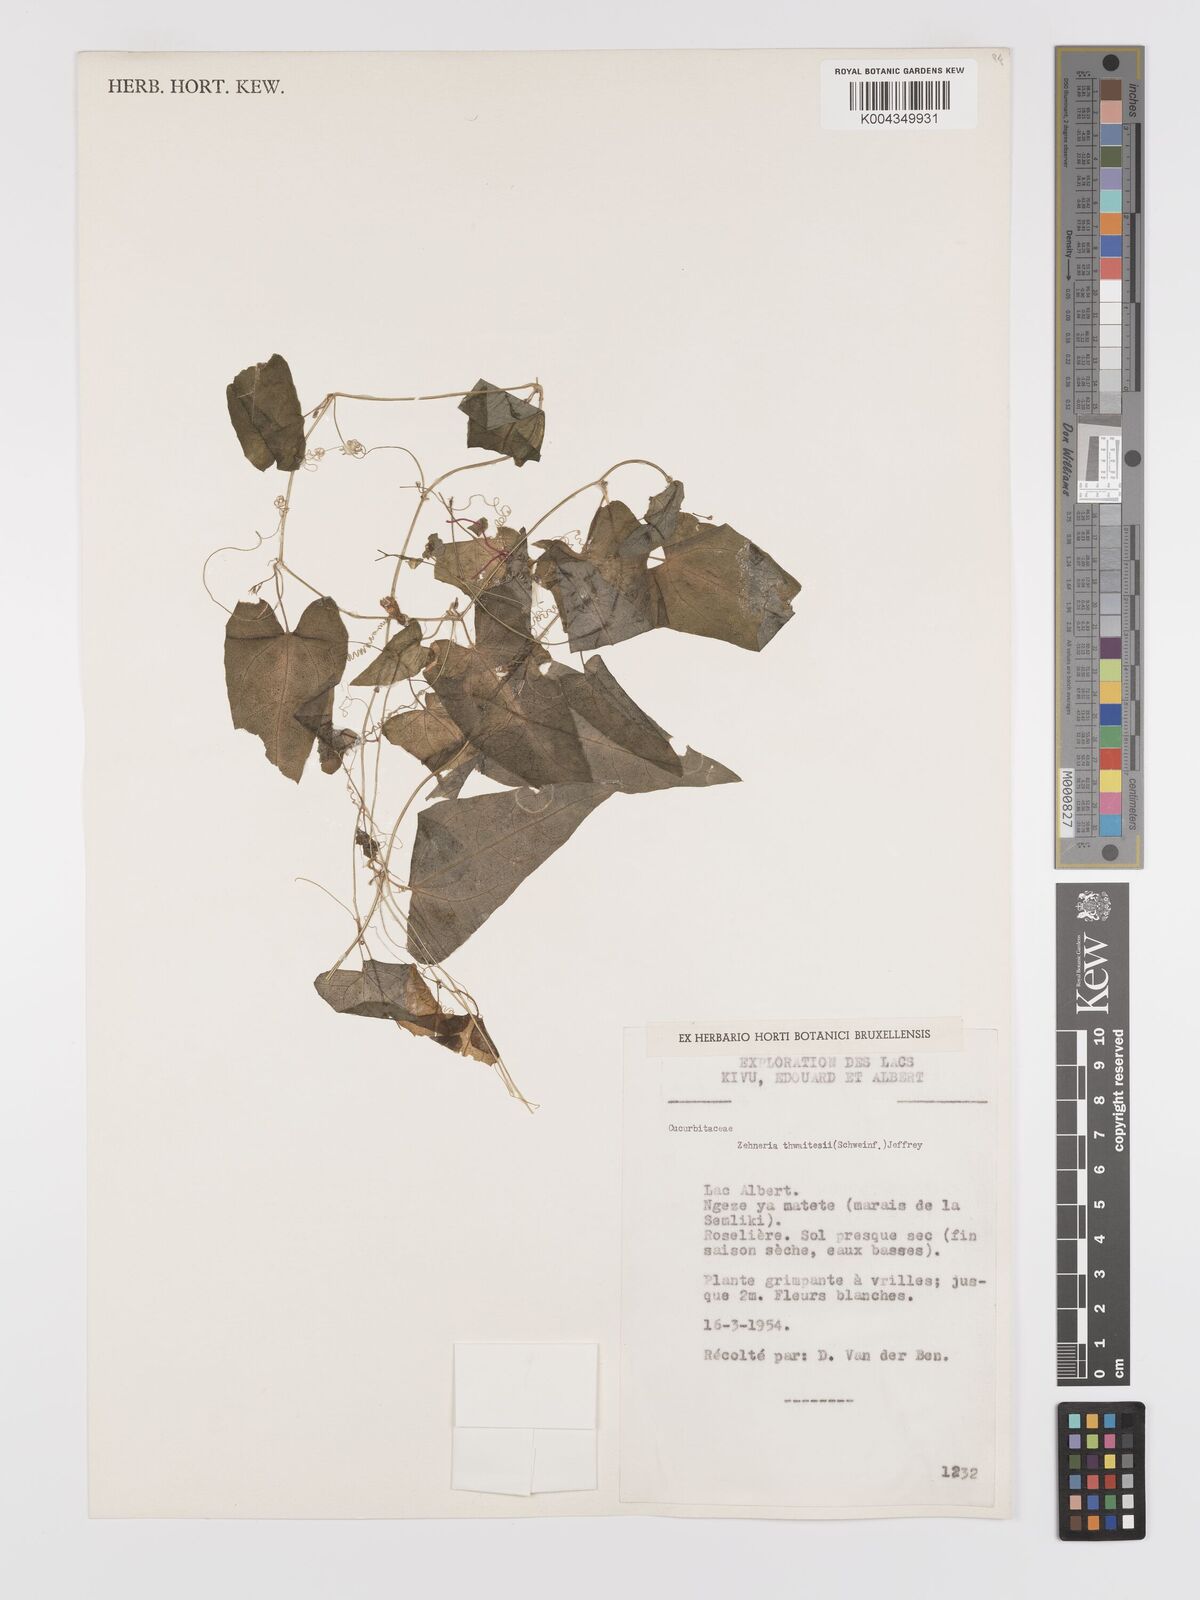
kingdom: Plantae
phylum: Tracheophyta
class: Magnoliopsida
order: Cucurbitales
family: Cucurbitaceae
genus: Zehneria
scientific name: Zehneria thwaitesii
